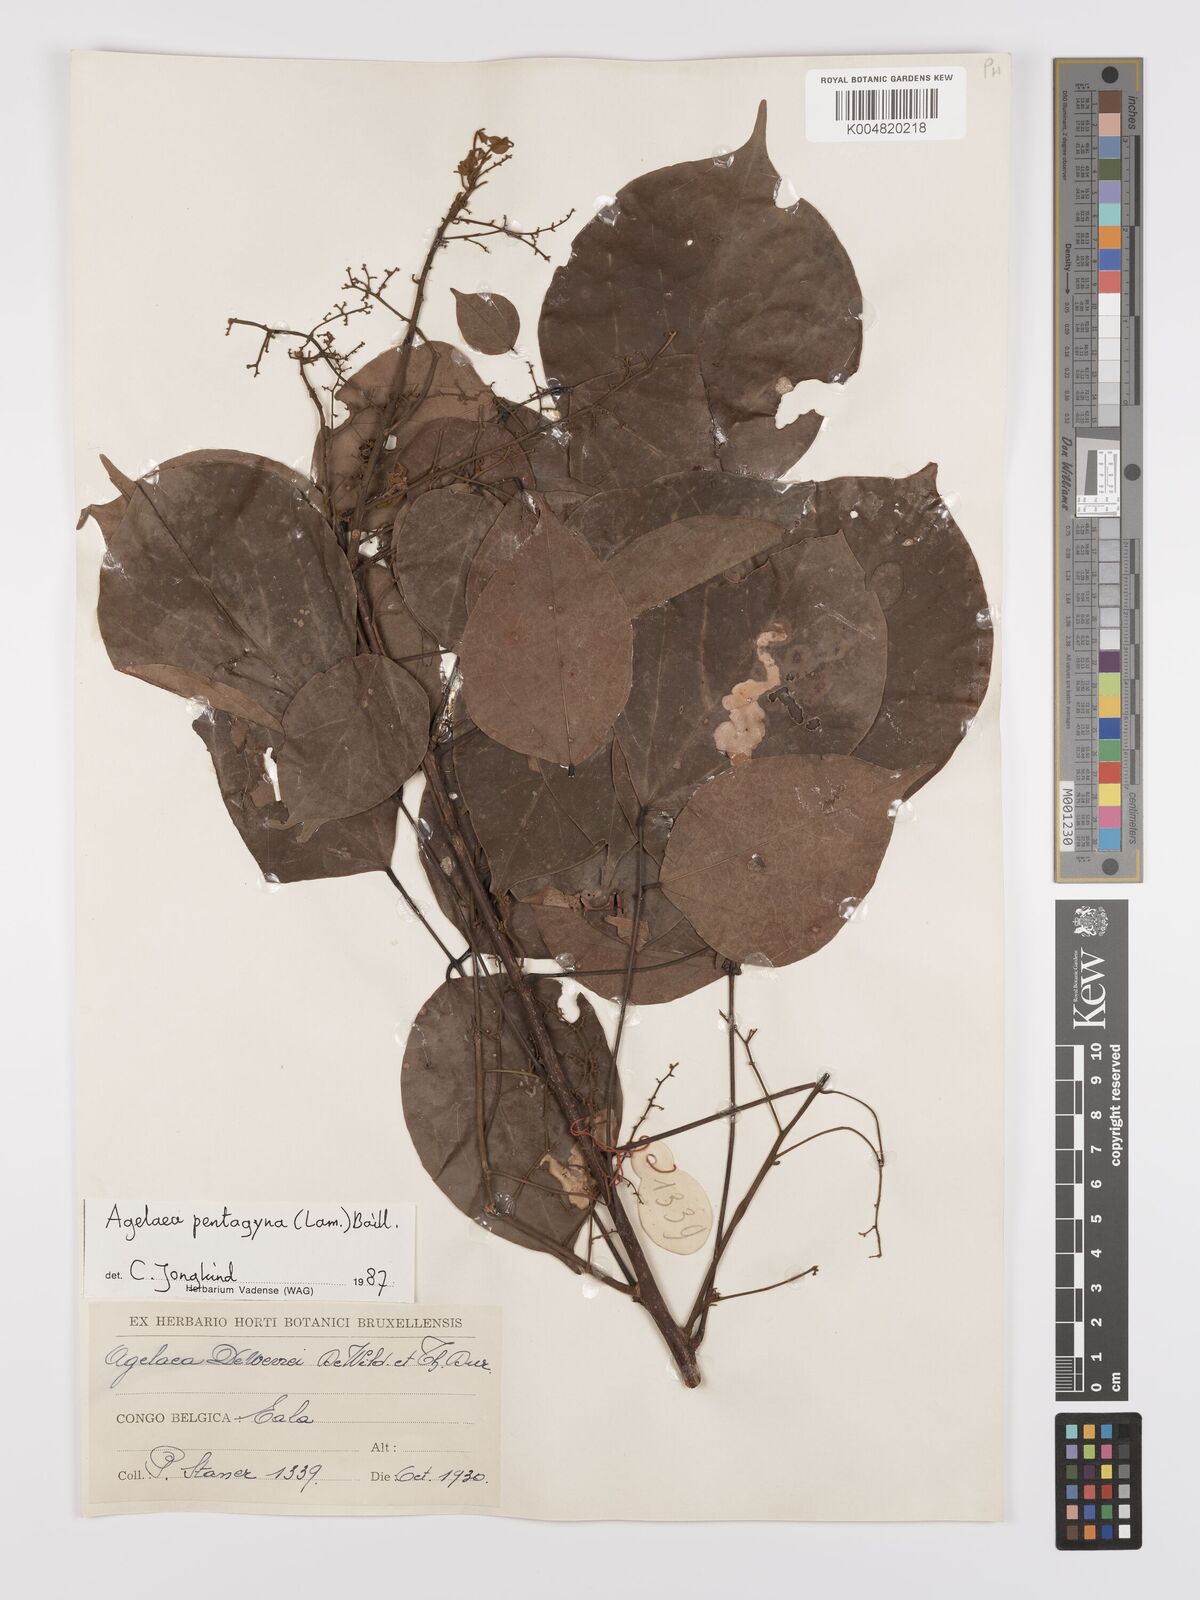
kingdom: Plantae
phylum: Tracheophyta
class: Magnoliopsida
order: Oxalidales
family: Connaraceae
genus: Agelaea
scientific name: Agelaea pentagyna
